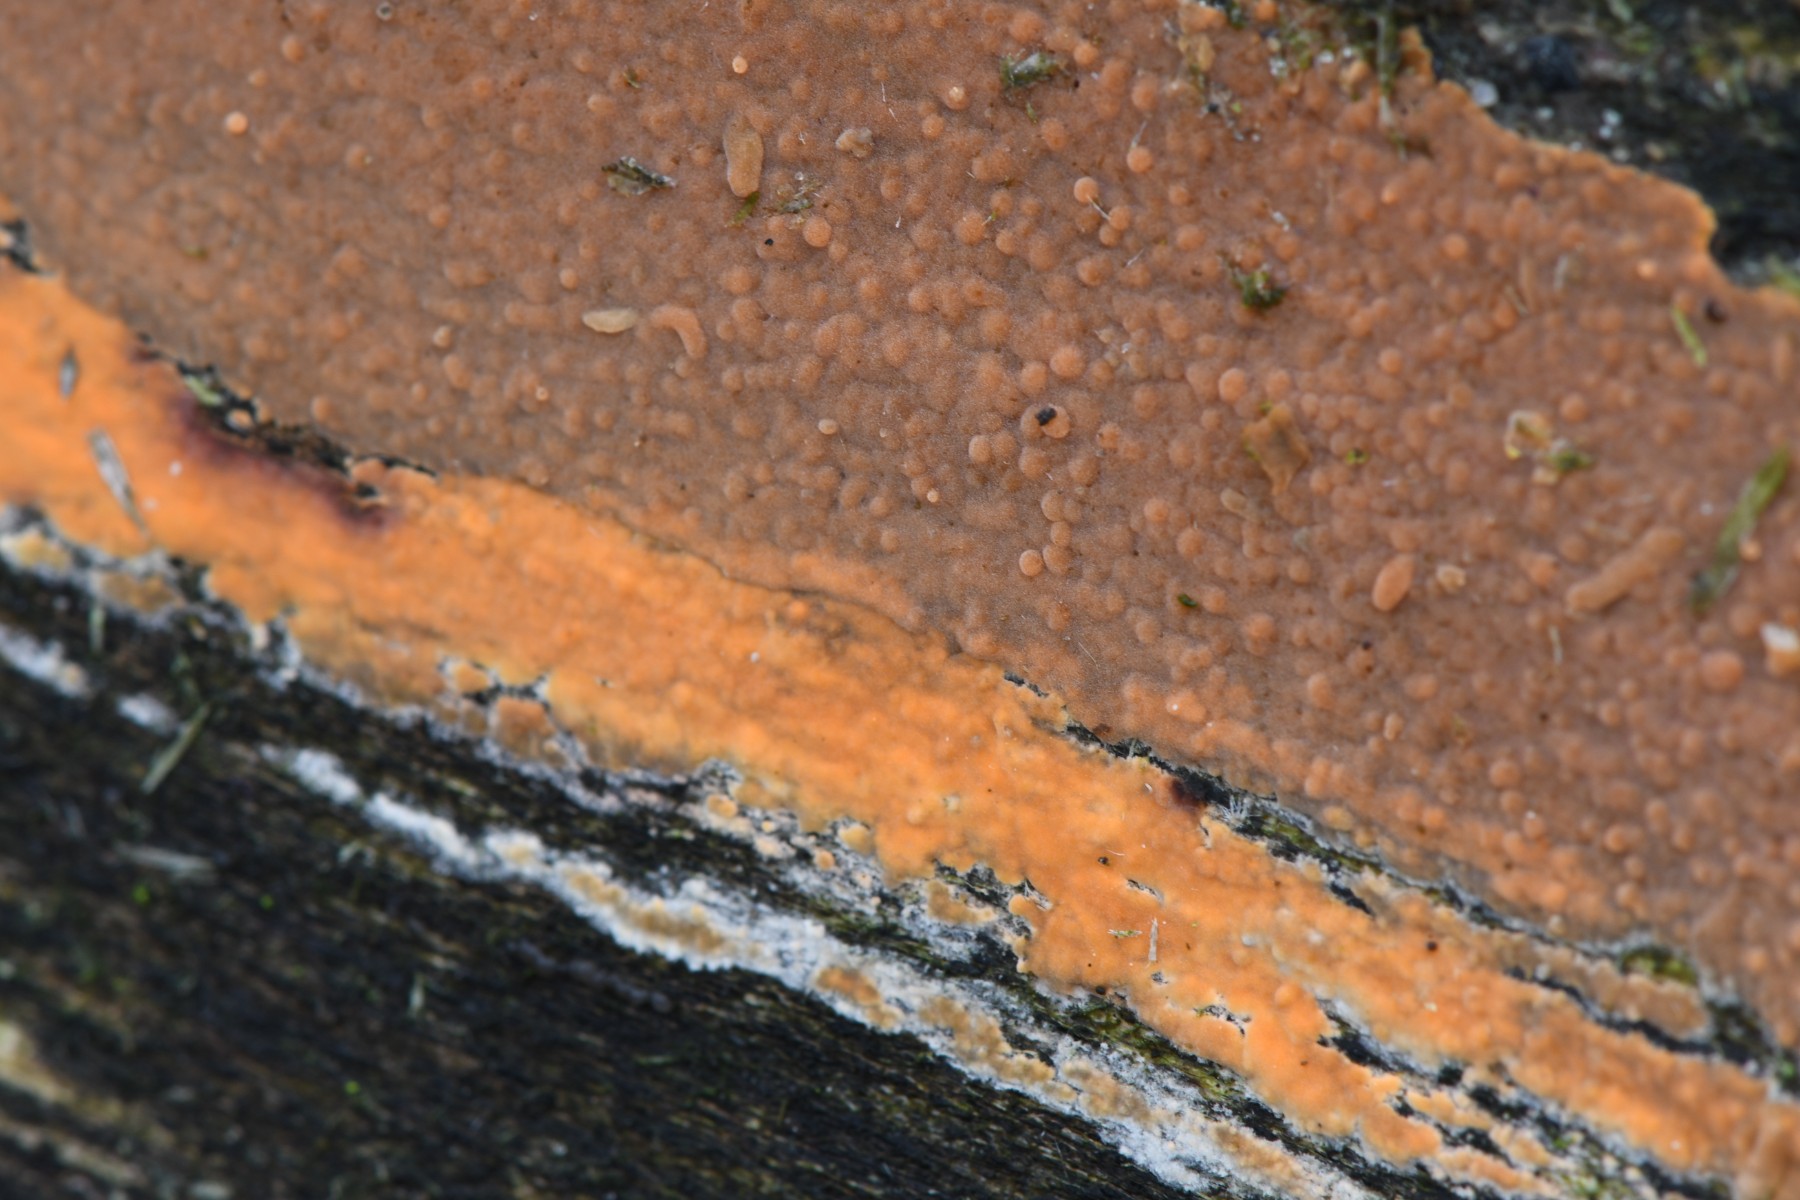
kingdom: Fungi
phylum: Basidiomycota
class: Agaricomycetes
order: Russulales
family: Peniophoraceae
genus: Peniophora
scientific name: Peniophora incarnata
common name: laksefarvet voksskind
